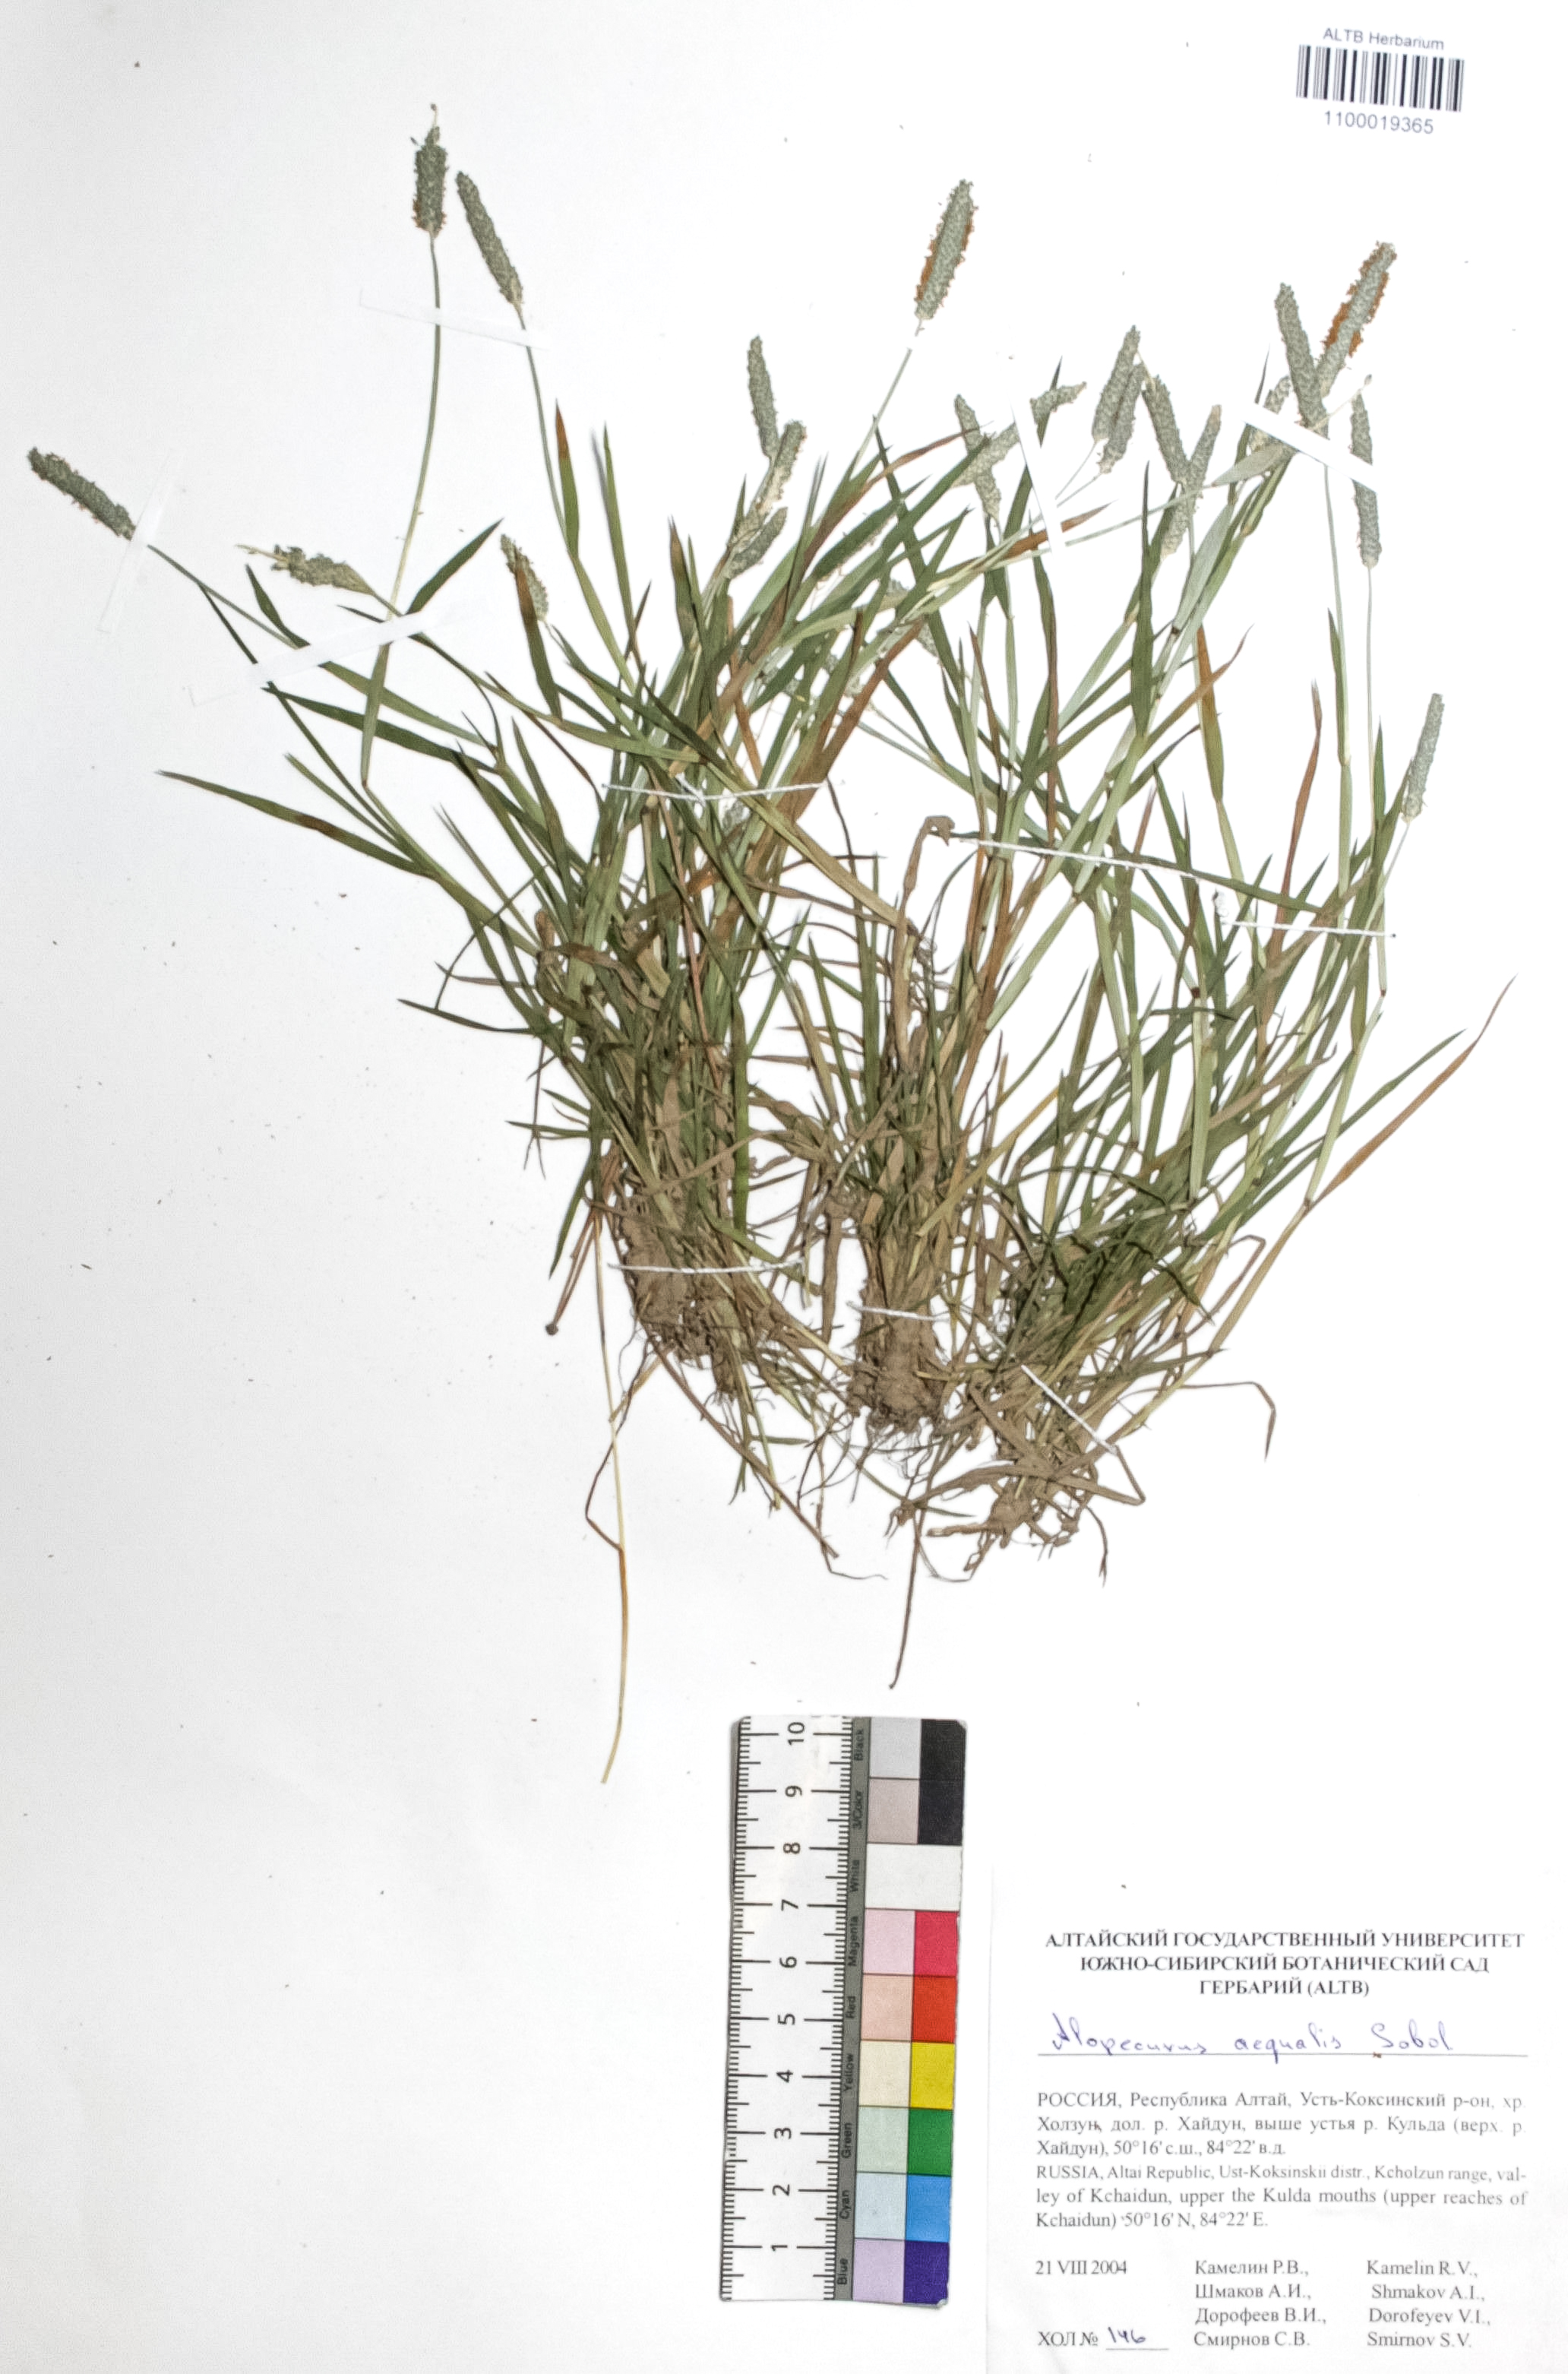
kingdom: Plantae
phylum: Tracheophyta
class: Liliopsida
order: Poales
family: Poaceae
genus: Alopecurus
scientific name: Alopecurus aequalis
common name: Orange foxtail
